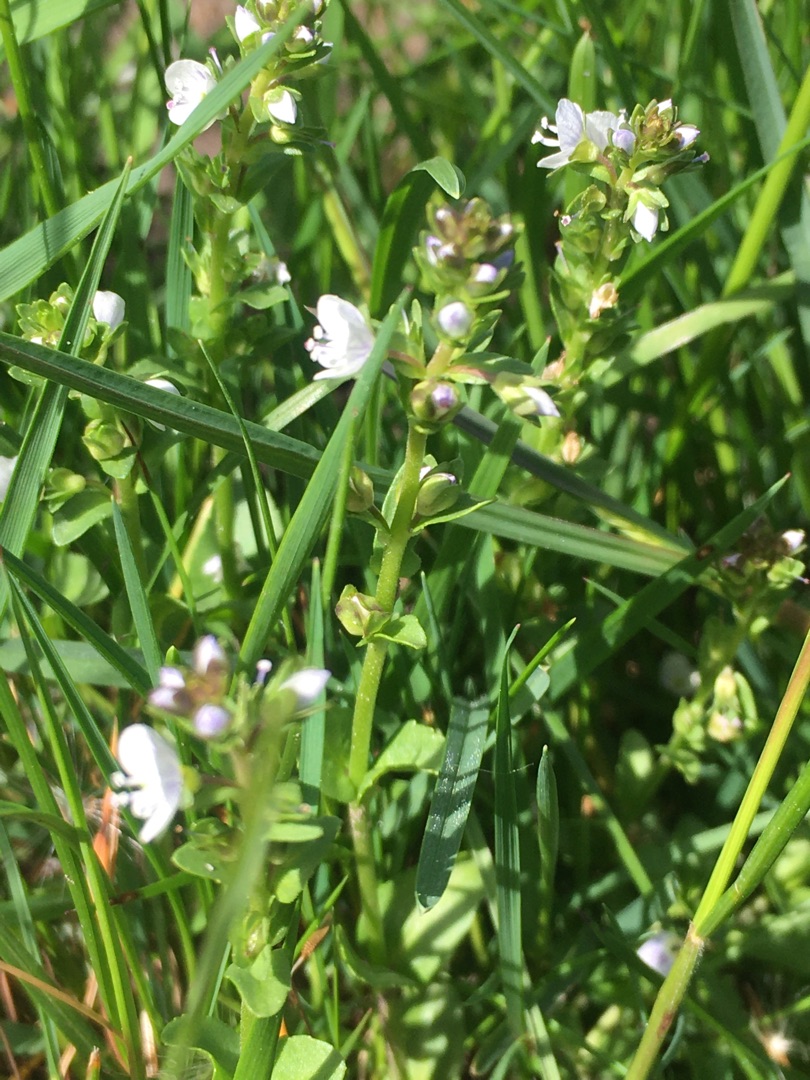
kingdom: Plantae
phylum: Tracheophyta
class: Magnoliopsida
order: Lamiales
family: Plantaginaceae
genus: Veronica
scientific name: Veronica serpyllifolia
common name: Glat ærenpris
